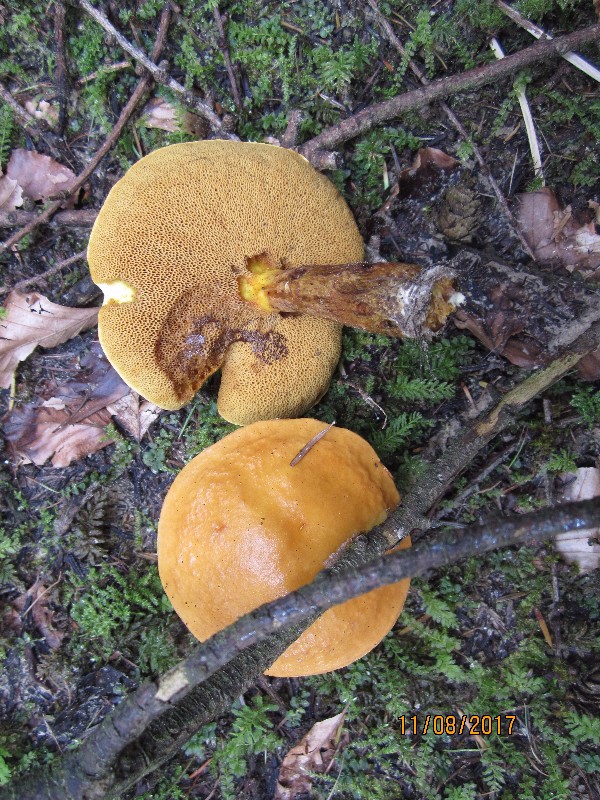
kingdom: Fungi
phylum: Basidiomycota
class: Agaricomycetes
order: Boletales
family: Suillaceae
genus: Suillus
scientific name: Suillus grevillei
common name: lærke-slimrørhat
